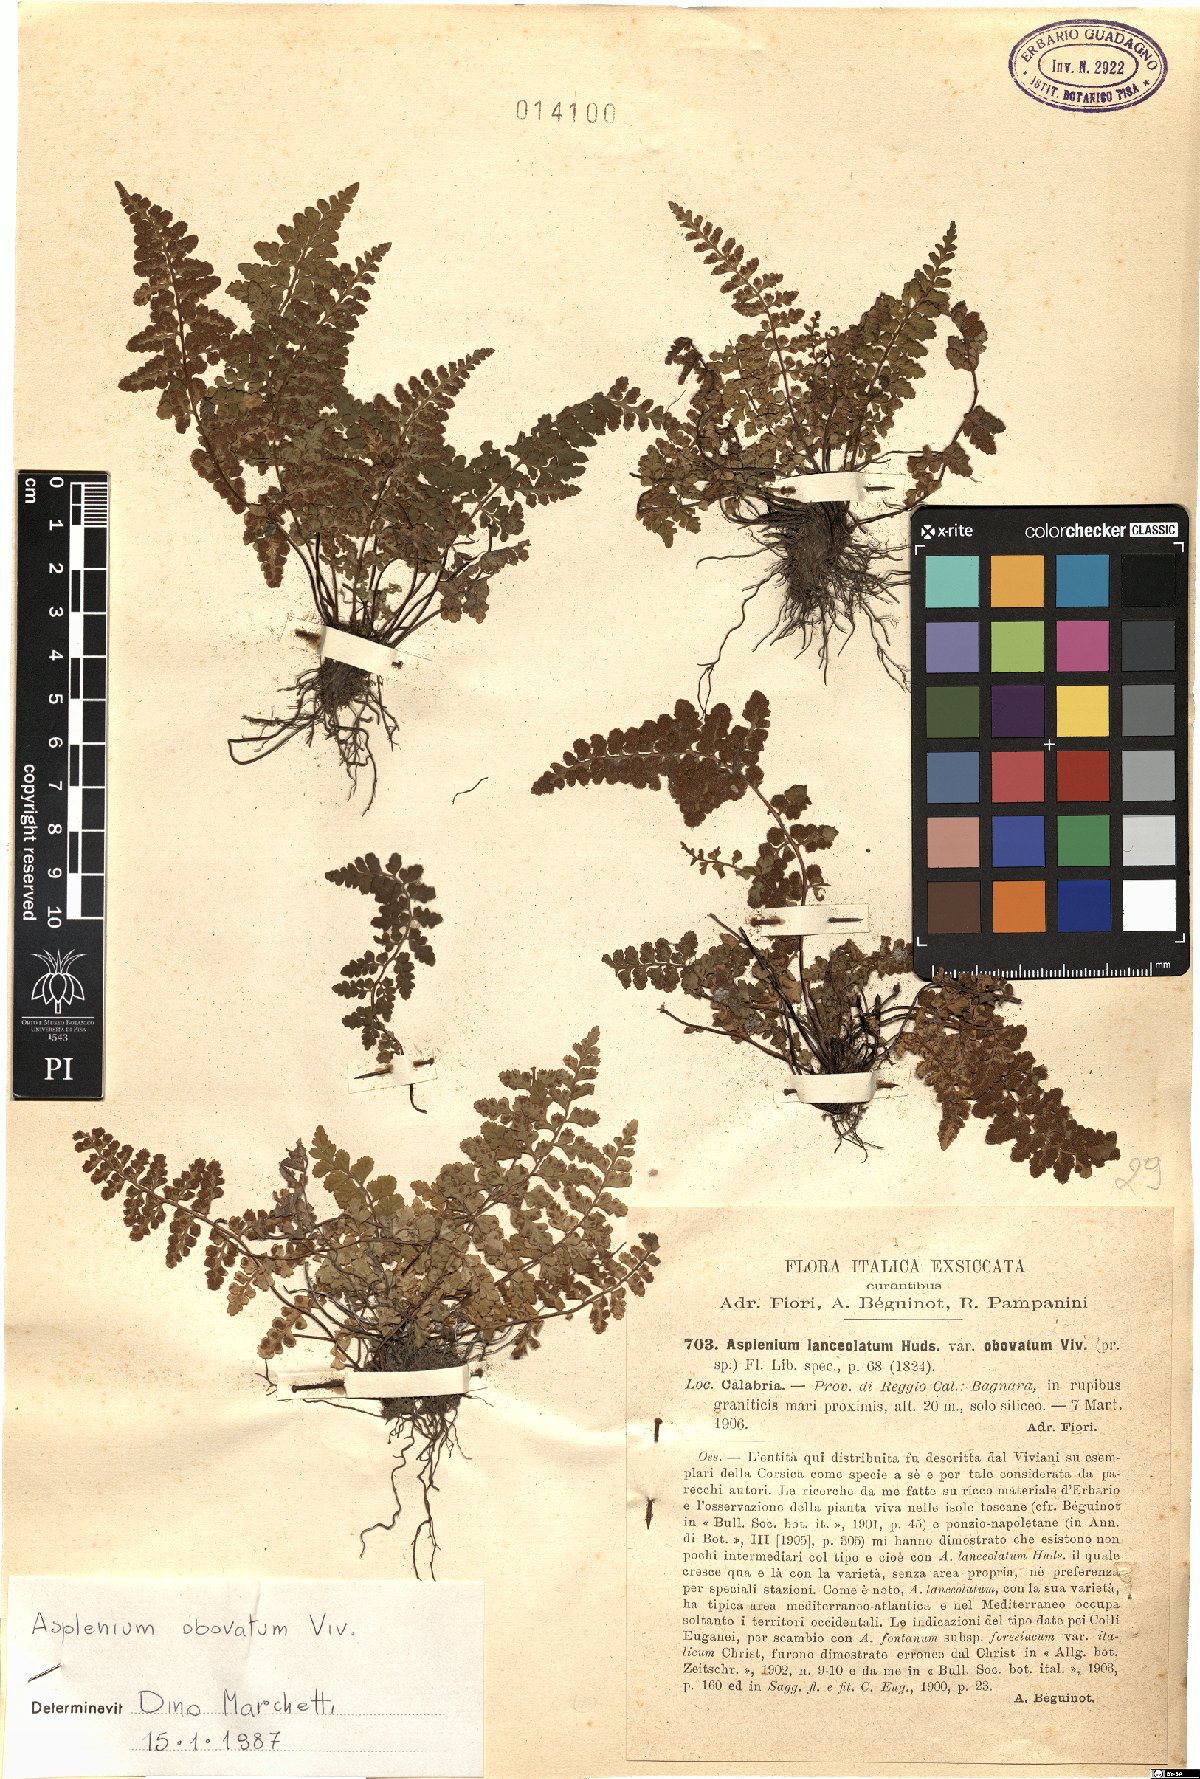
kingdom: Plantae
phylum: Tracheophyta
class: Polypodiopsida
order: Polypodiales
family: Aspleniaceae
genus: Asplenium
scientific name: Asplenium obovatum
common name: Lanceolate spleenwort
